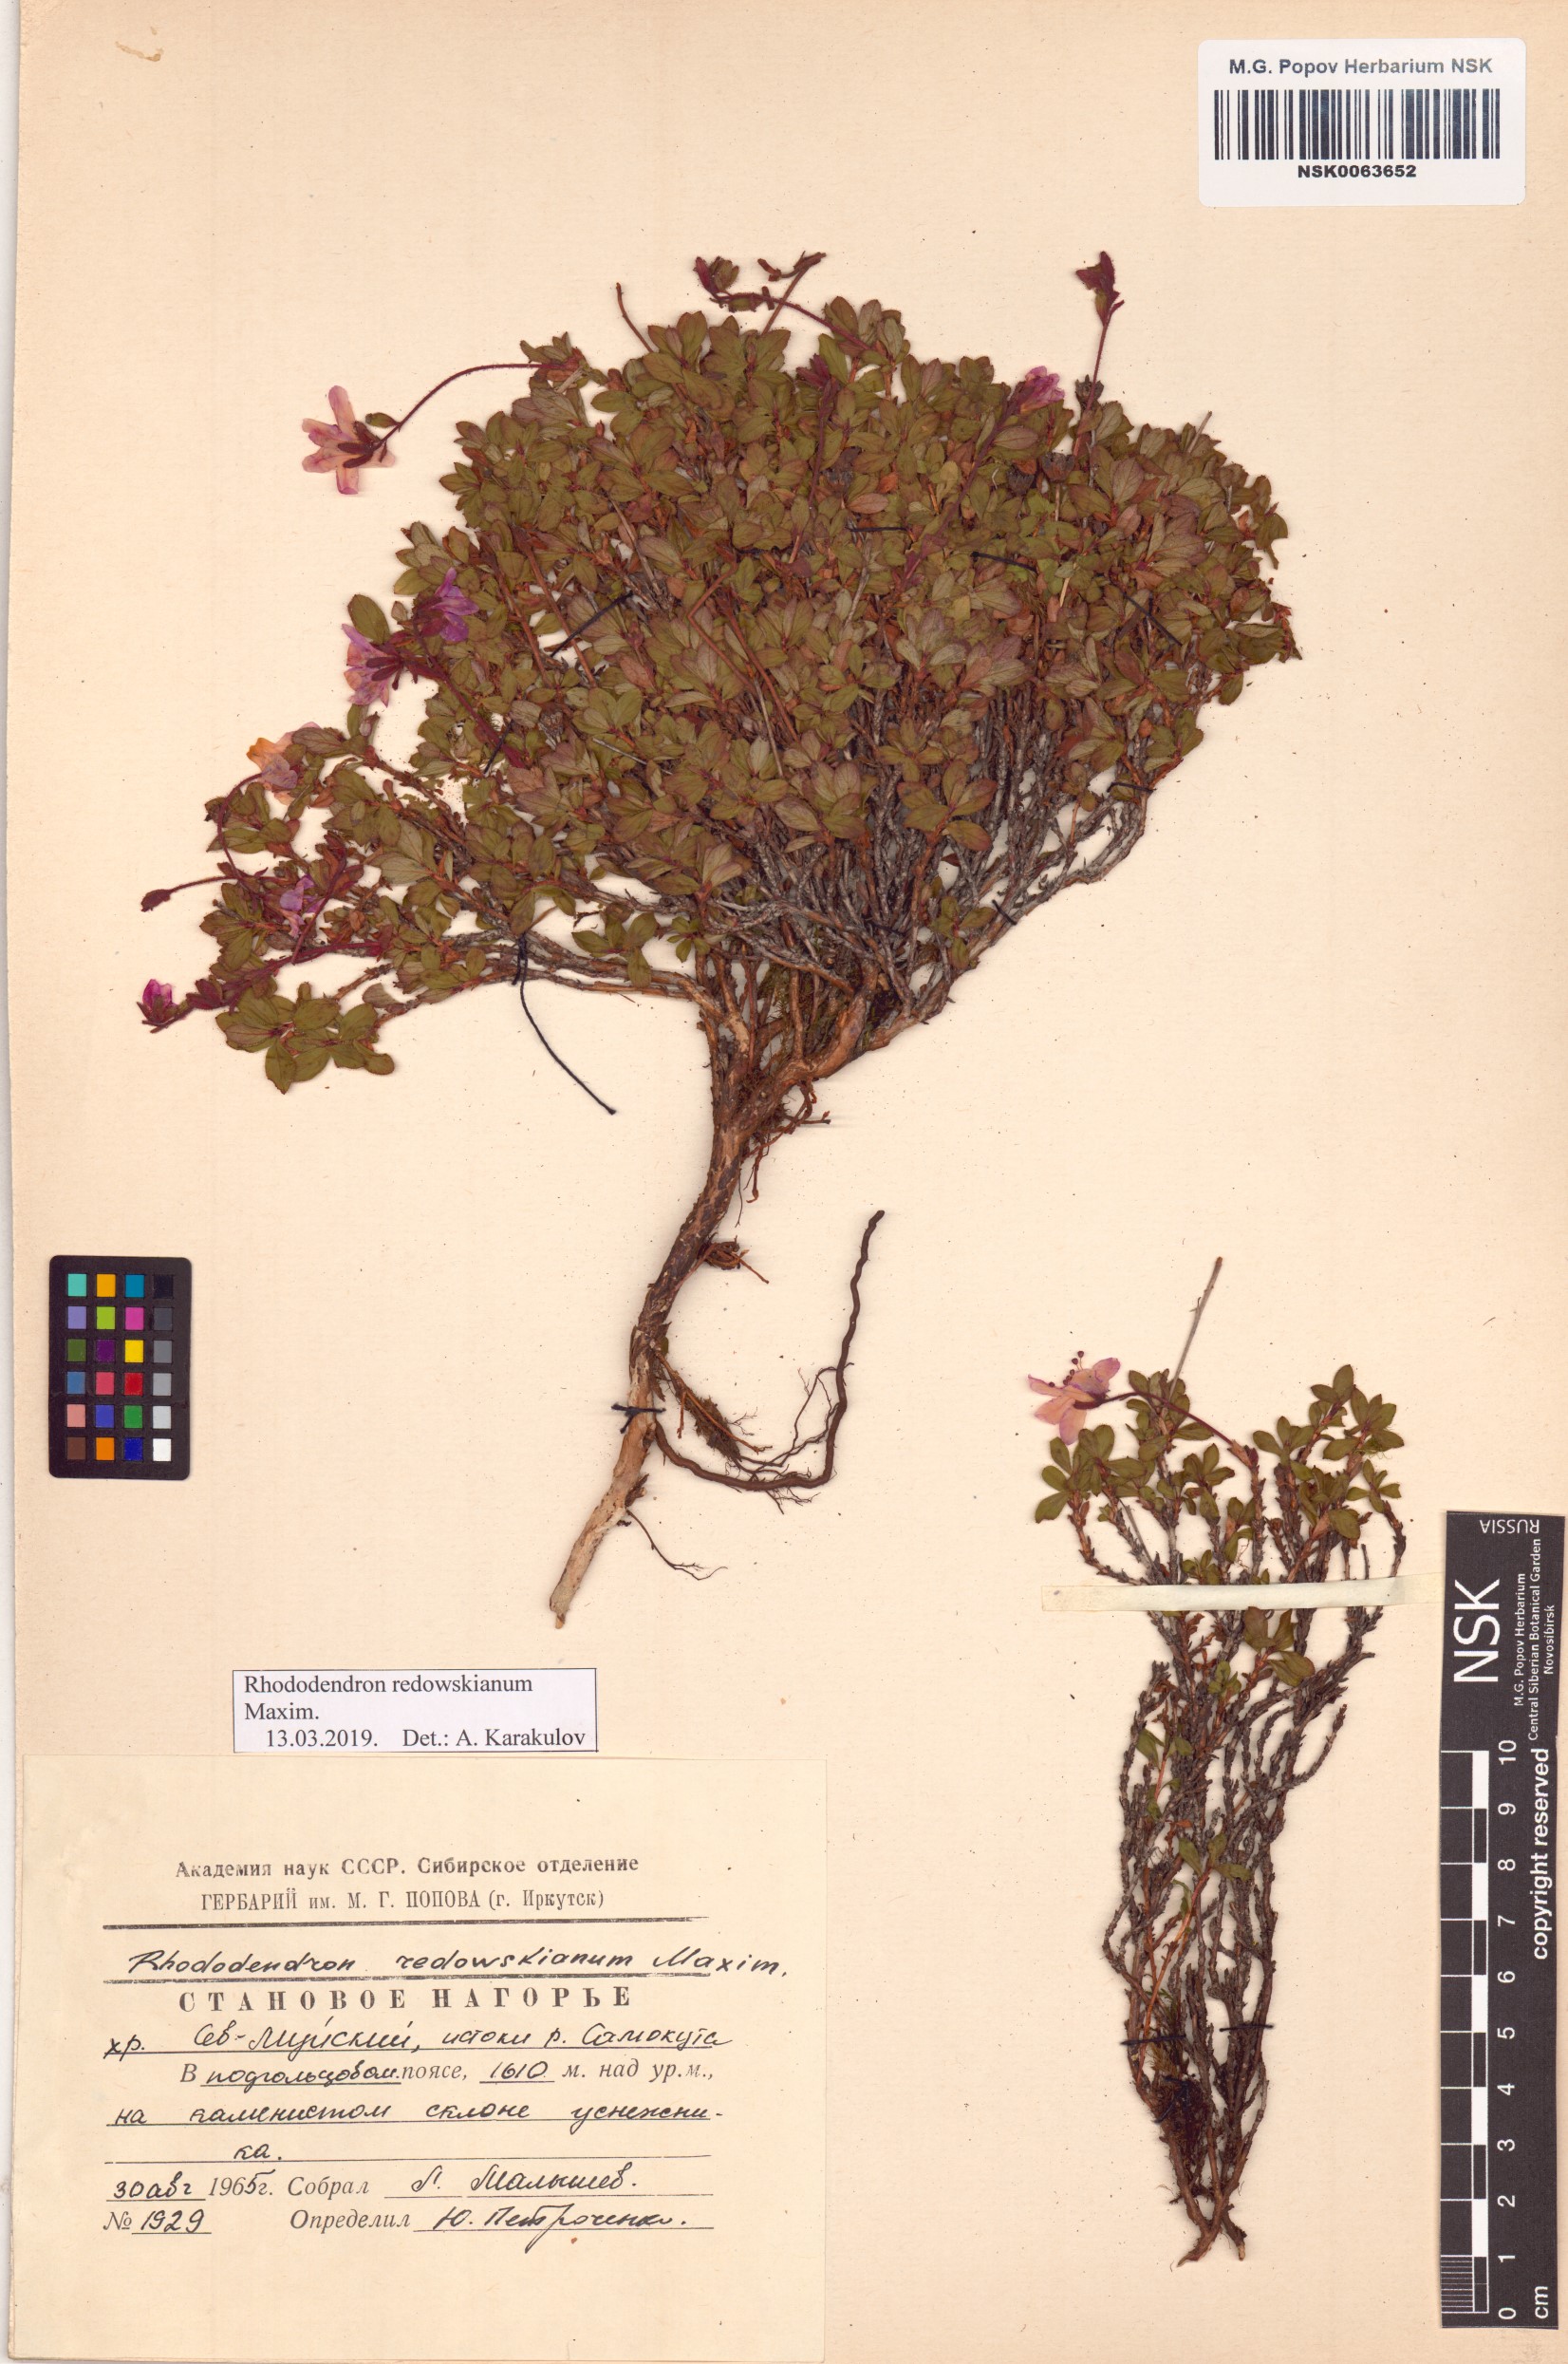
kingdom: Plantae
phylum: Tracheophyta
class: Magnoliopsida
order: Ericales
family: Ericaceae
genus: Rhododendron
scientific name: Rhododendron redowskianum
